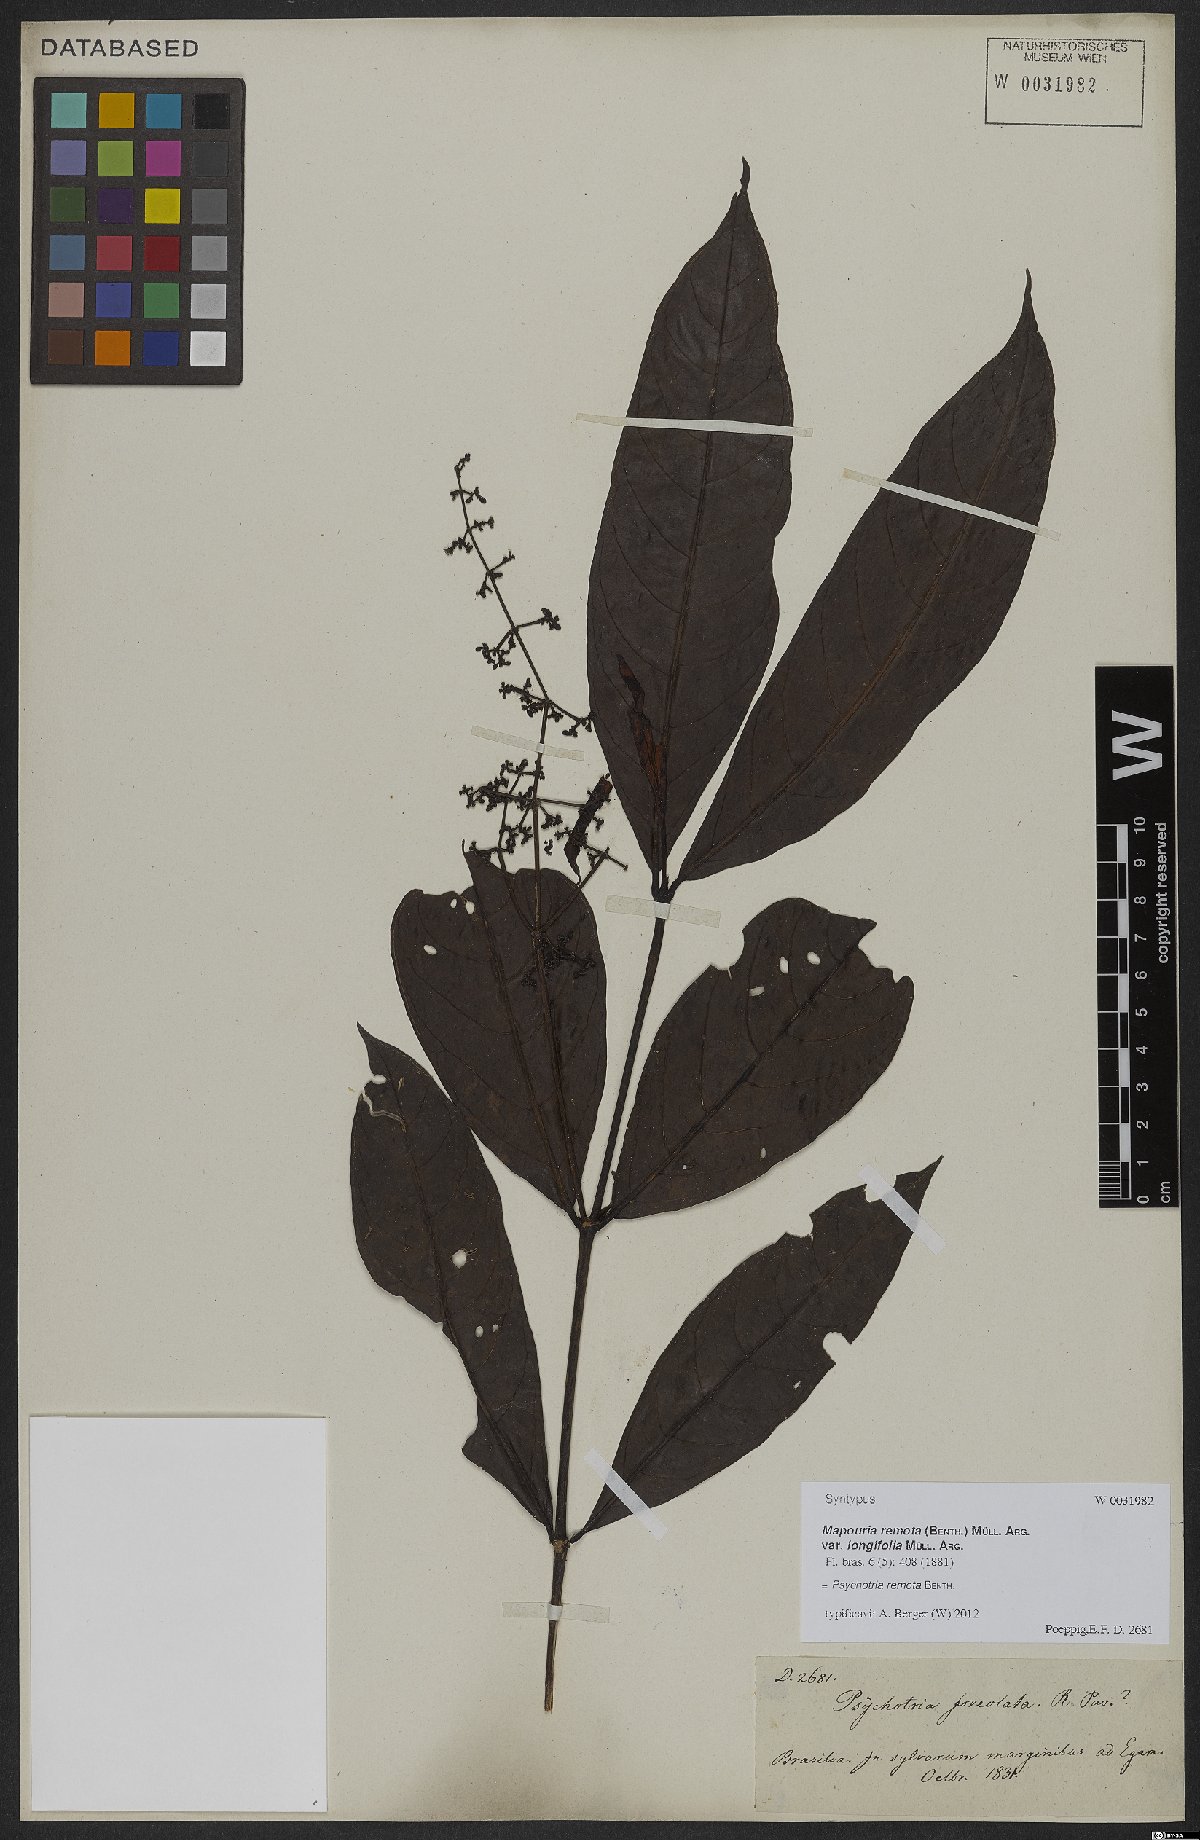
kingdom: Plantae
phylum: Tracheophyta
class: Magnoliopsida
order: Gentianales
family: Rubiaceae
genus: Psychotria
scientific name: Psychotria remota
